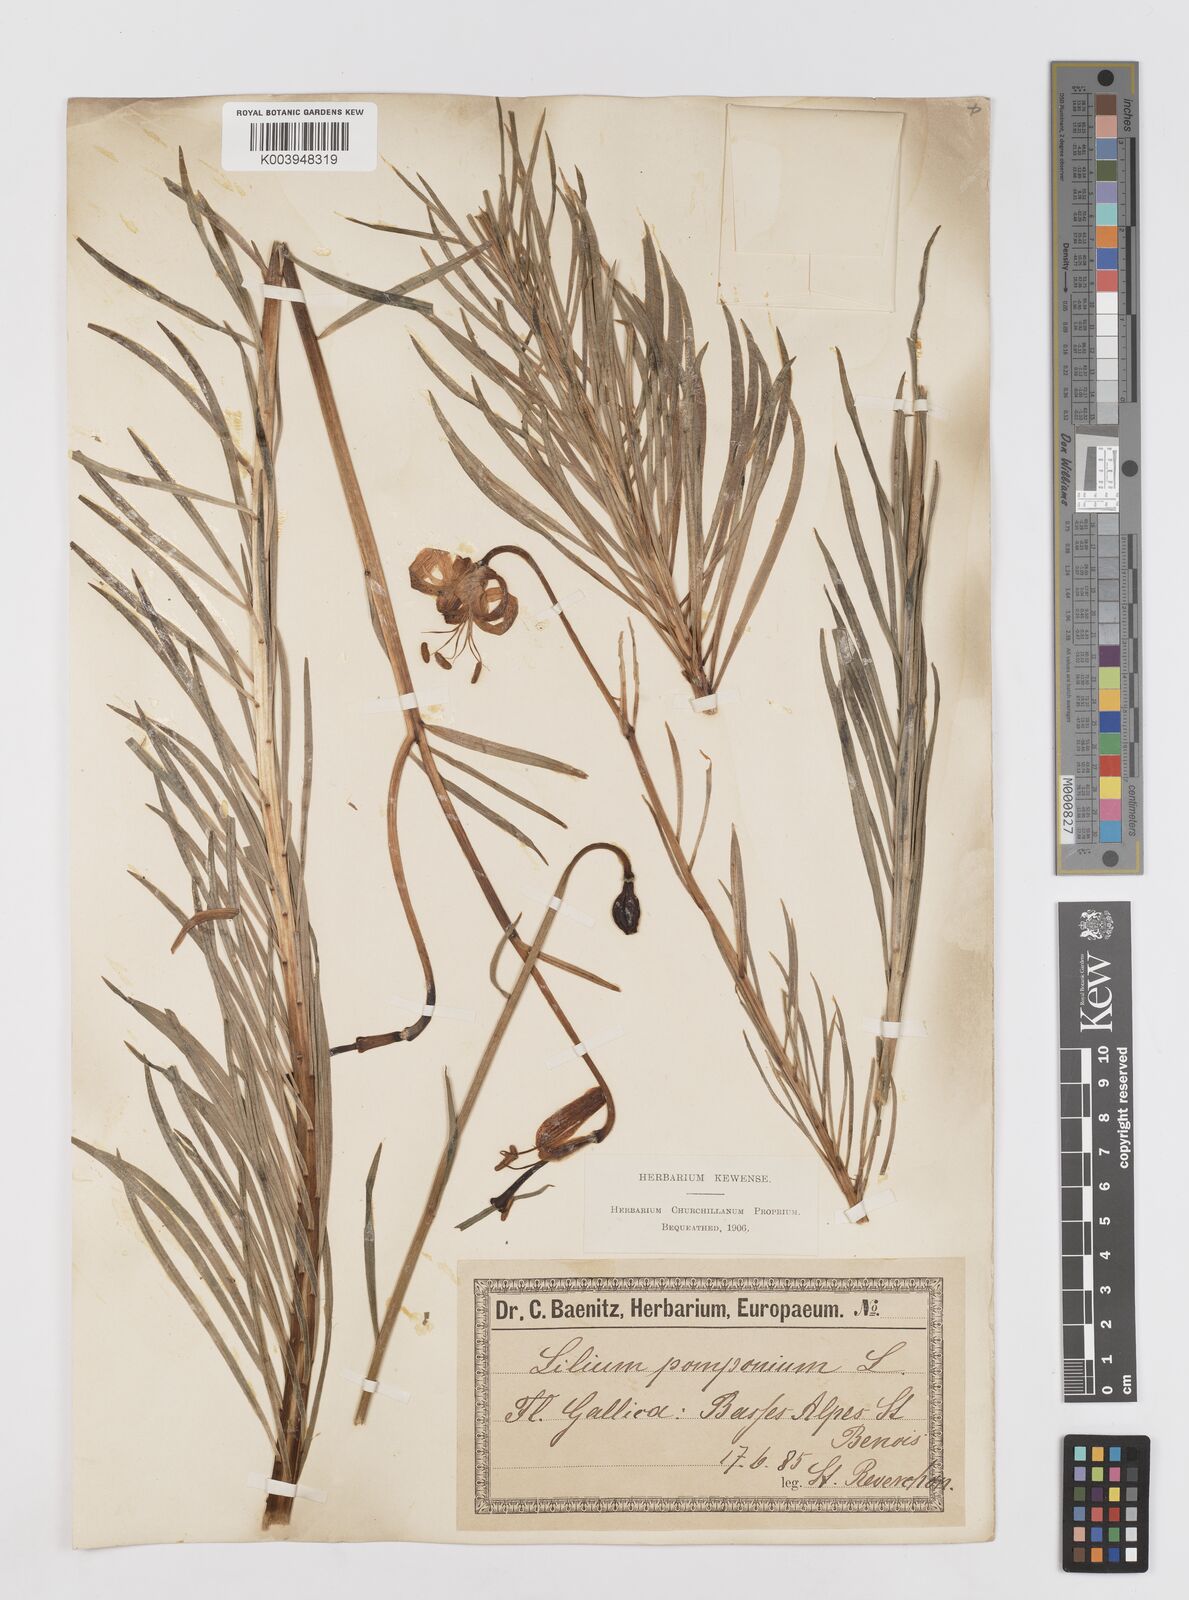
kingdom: Plantae
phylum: Tracheophyta
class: Liliopsida
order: Liliales
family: Liliaceae
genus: Lilium
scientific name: Lilium pomponium
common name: Minor turk's-cap lily
